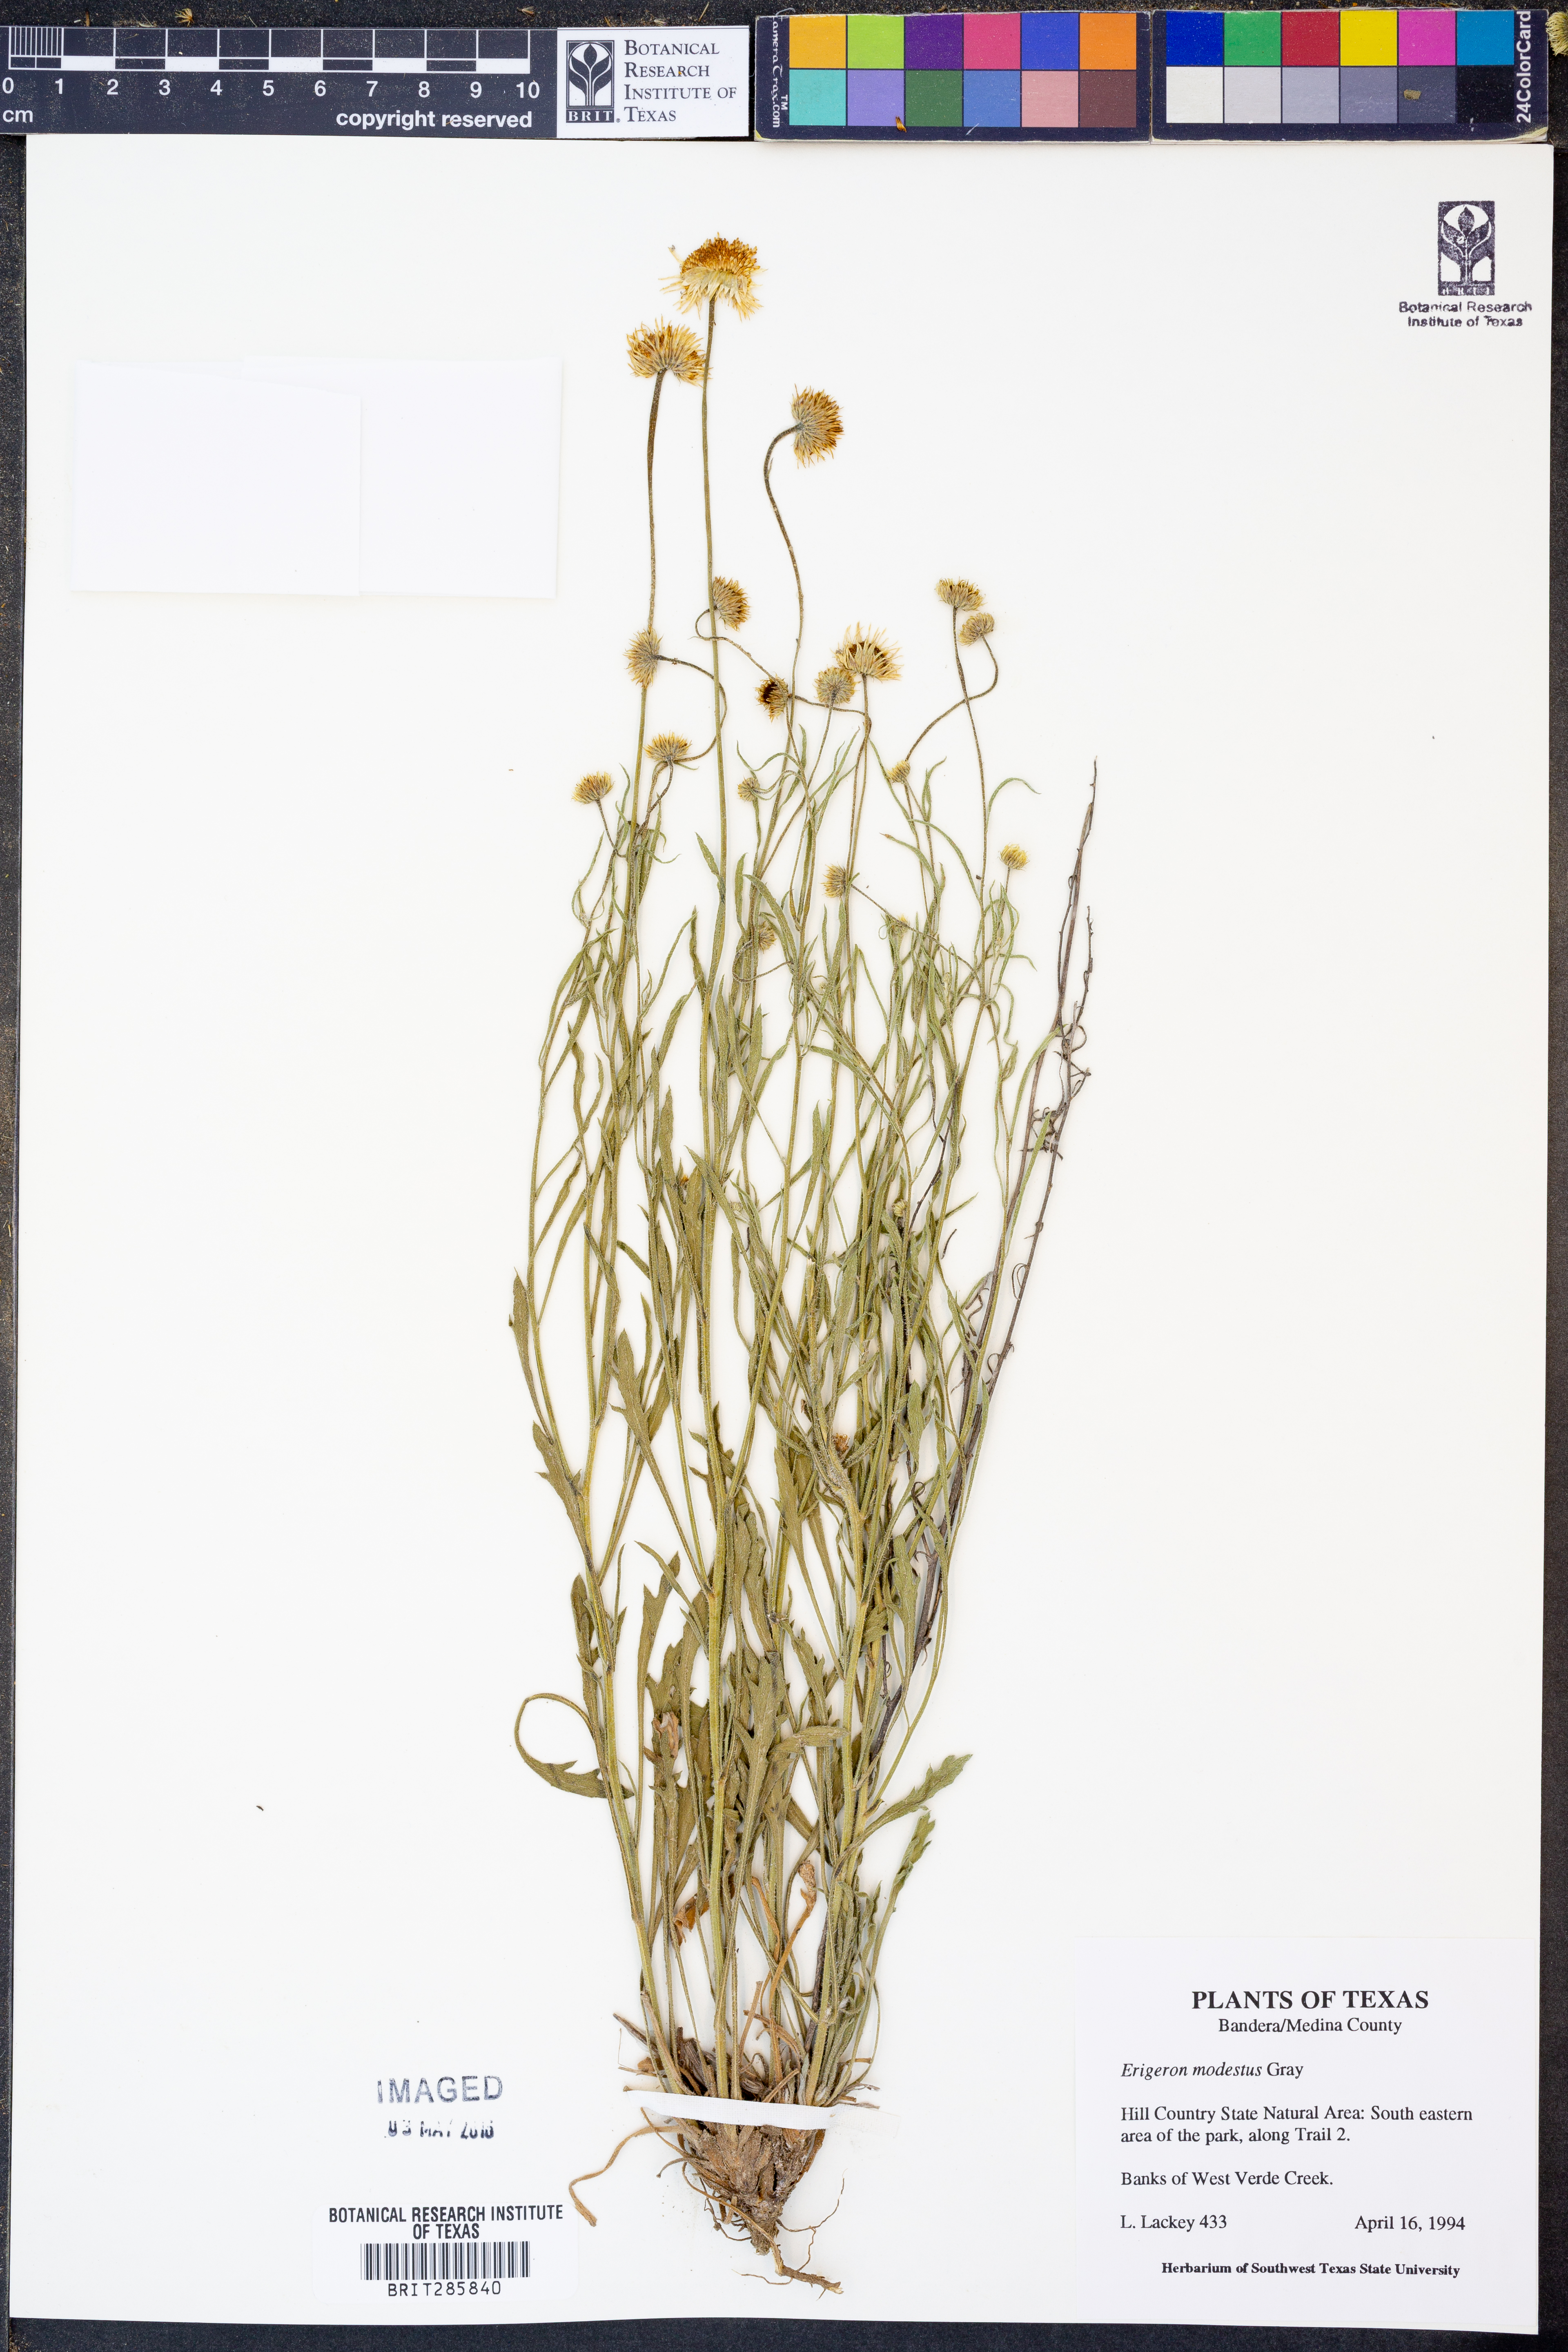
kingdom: Plantae
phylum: Tracheophyta
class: Magnoliopsida
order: Asterales
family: Asteraceae
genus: Erigeron
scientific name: Erigeron modestus
